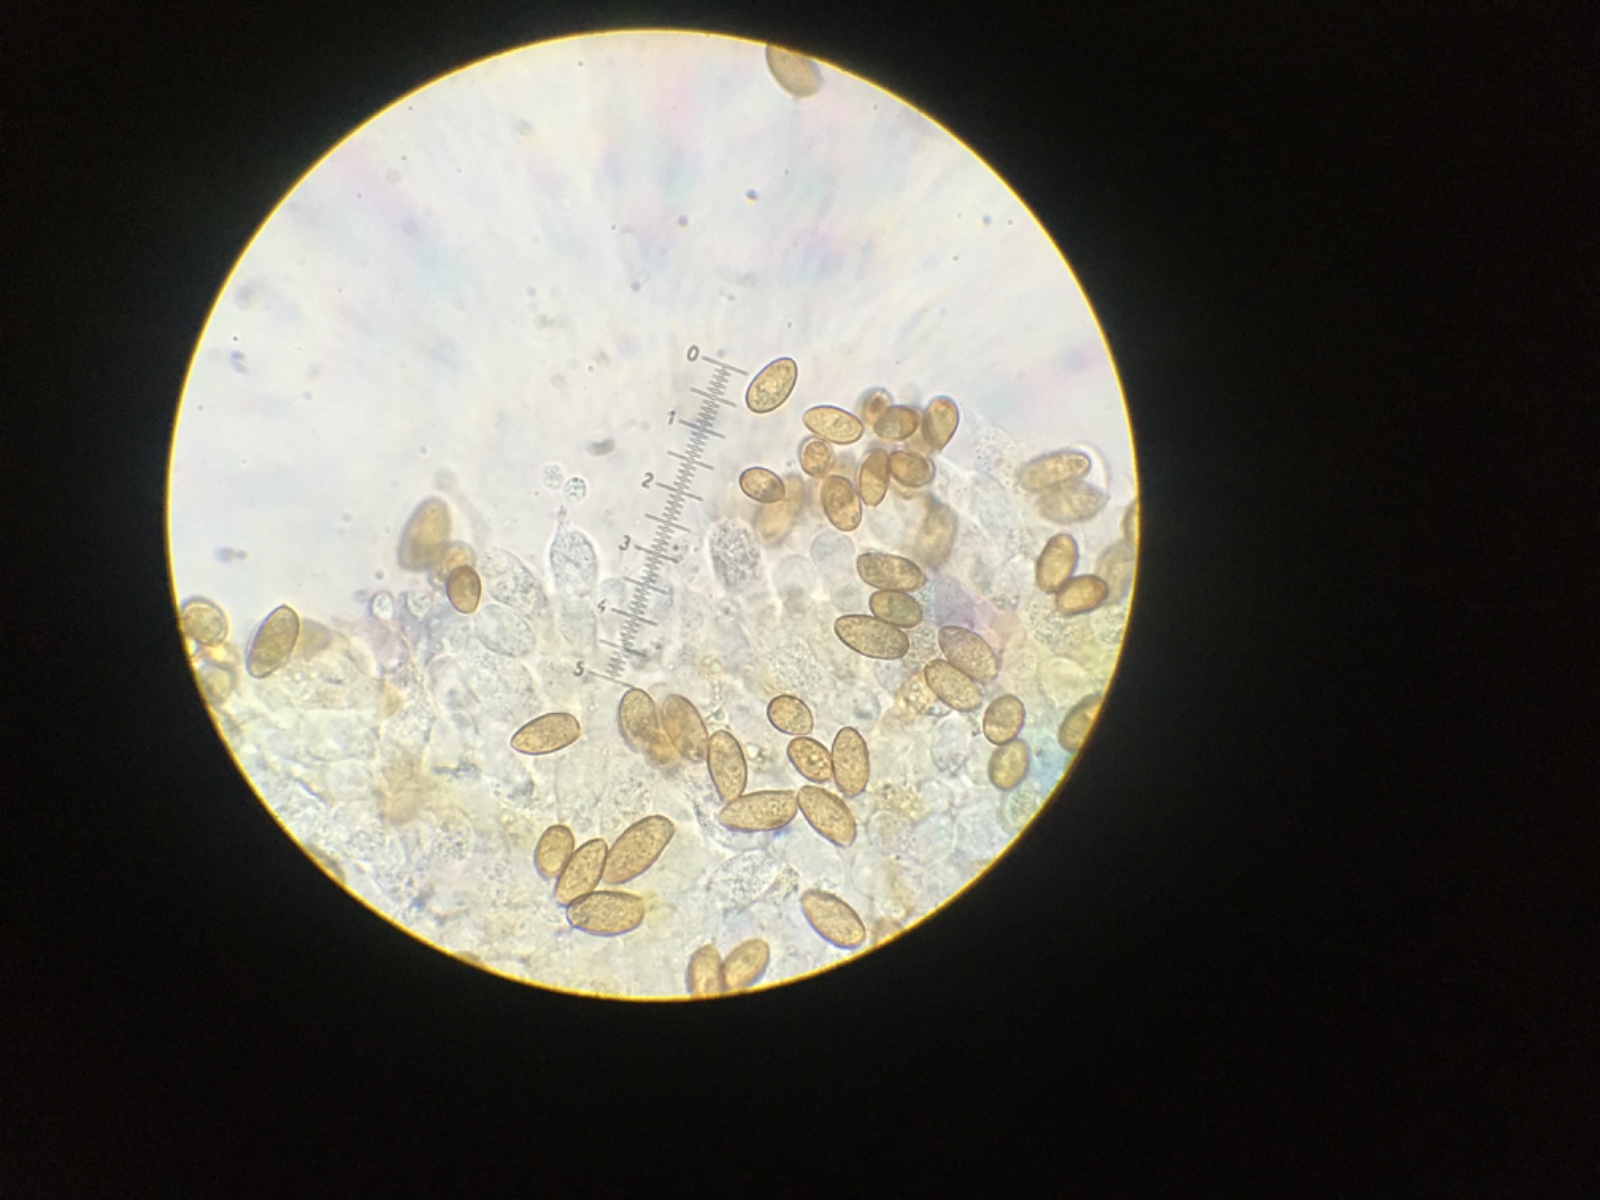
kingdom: Fungi
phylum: Basidiomycota
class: Agaricomycetes
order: Agaricales
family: Hymenogastraceae
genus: Galerina
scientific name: Galerina subclavata
